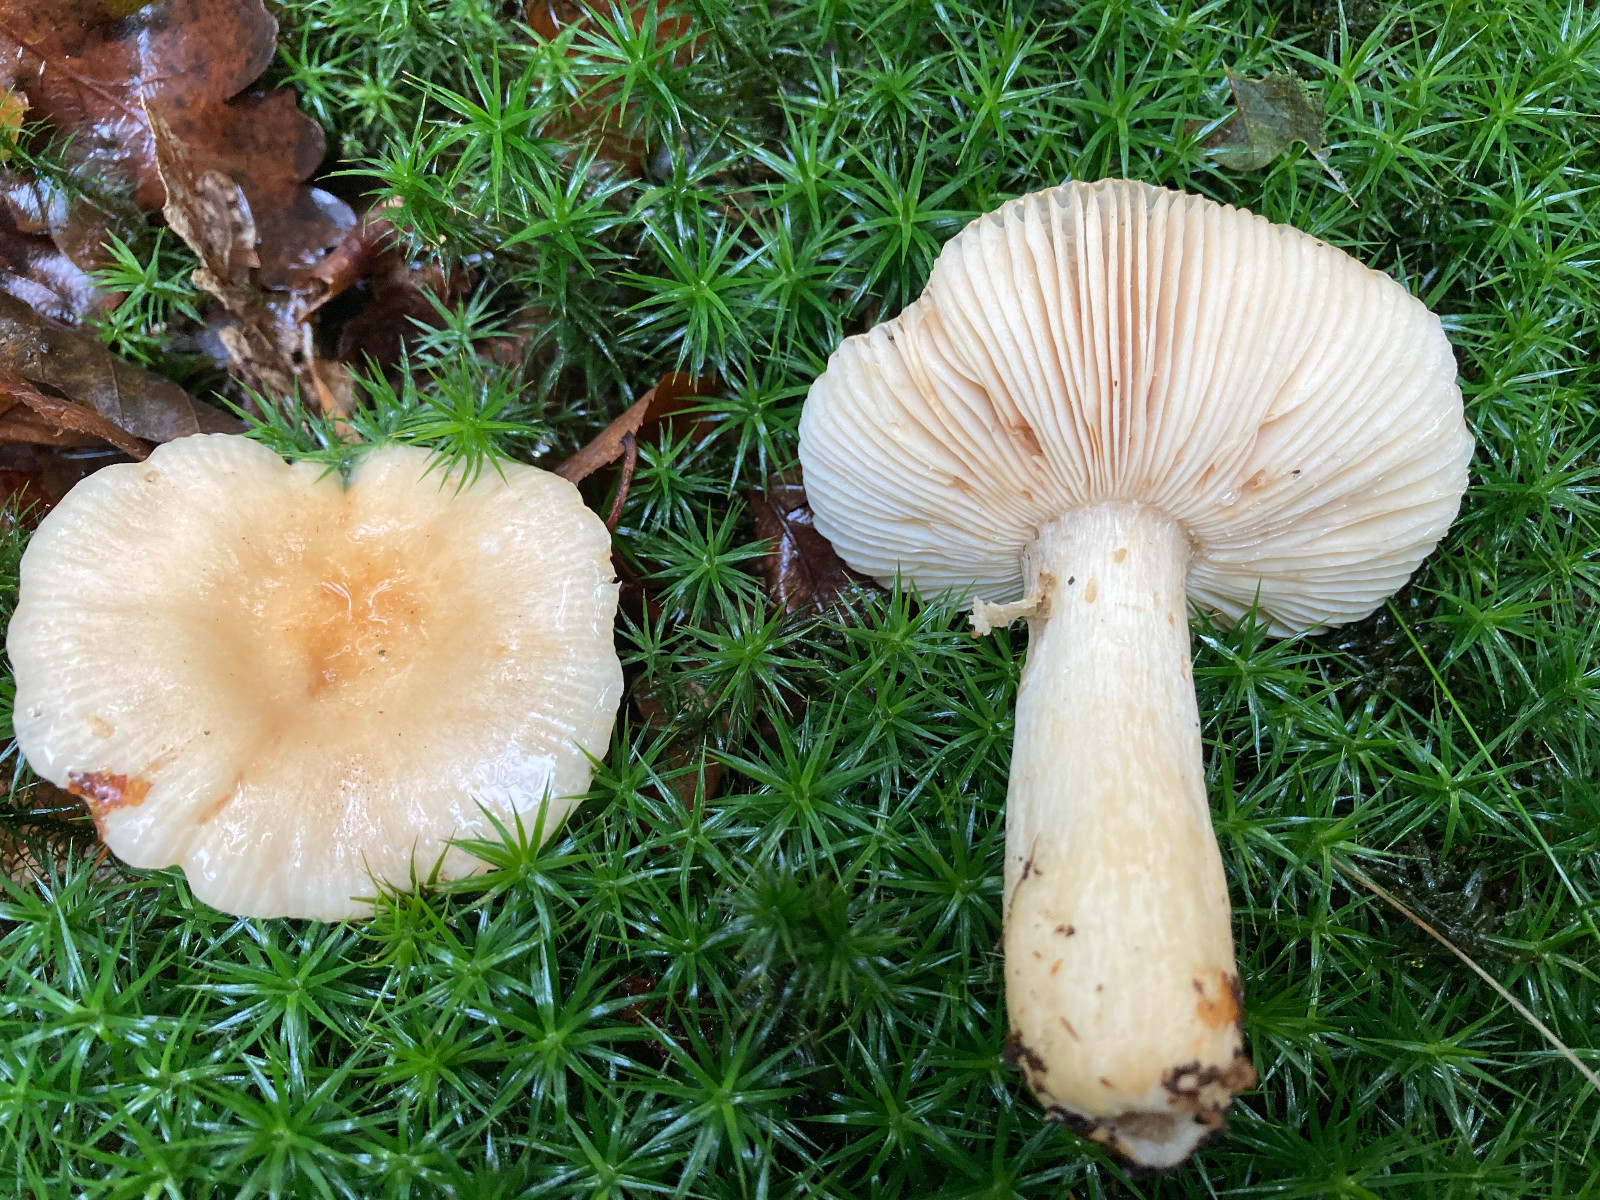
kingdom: Fungi
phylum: Basidiomycota
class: Agaricomycetes
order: Russulales
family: Russulaceae
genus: Russula
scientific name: Russula fellea
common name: galde-skørhat
